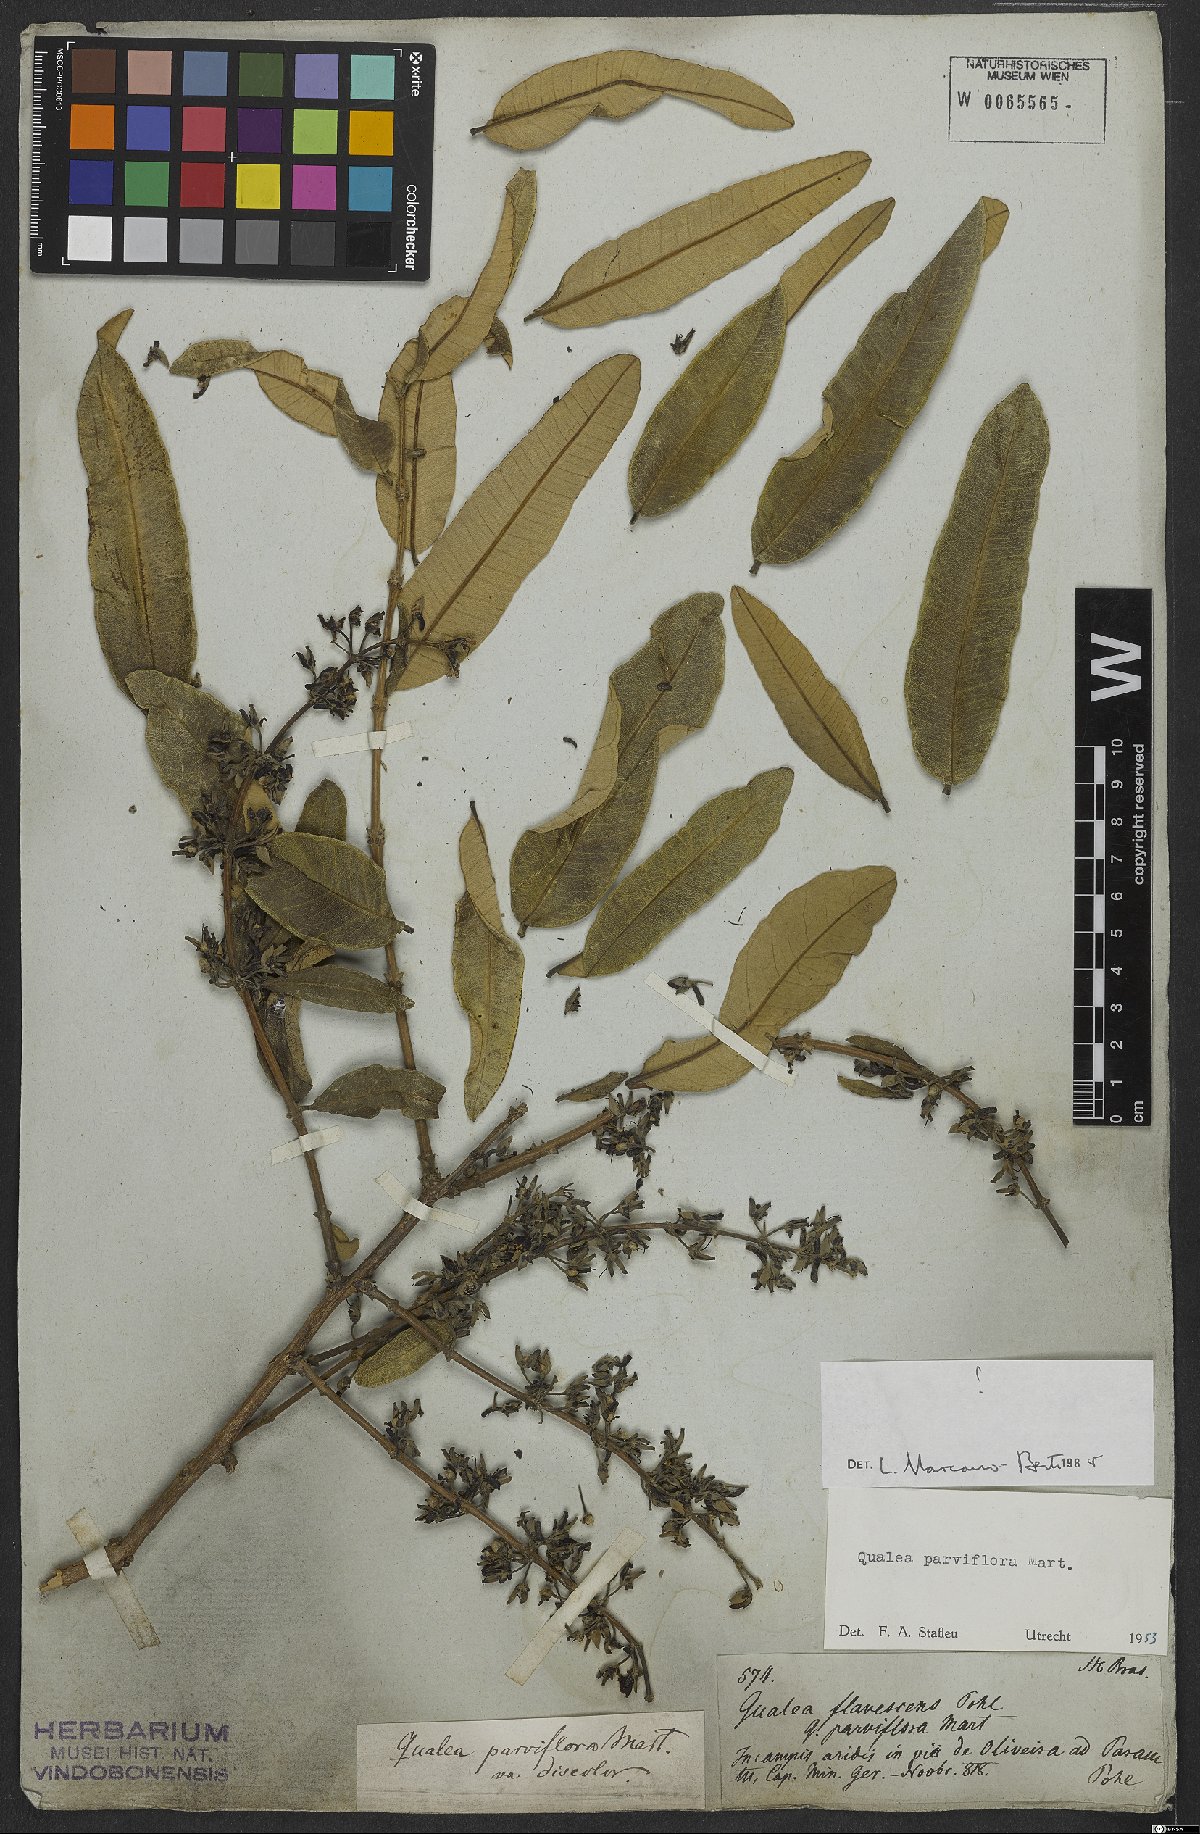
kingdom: Plantae
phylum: Tracheophyta
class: Magnoliopsida
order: Myrtales
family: Vochysiaceae
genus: Qualea
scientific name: Qualea parviflora
